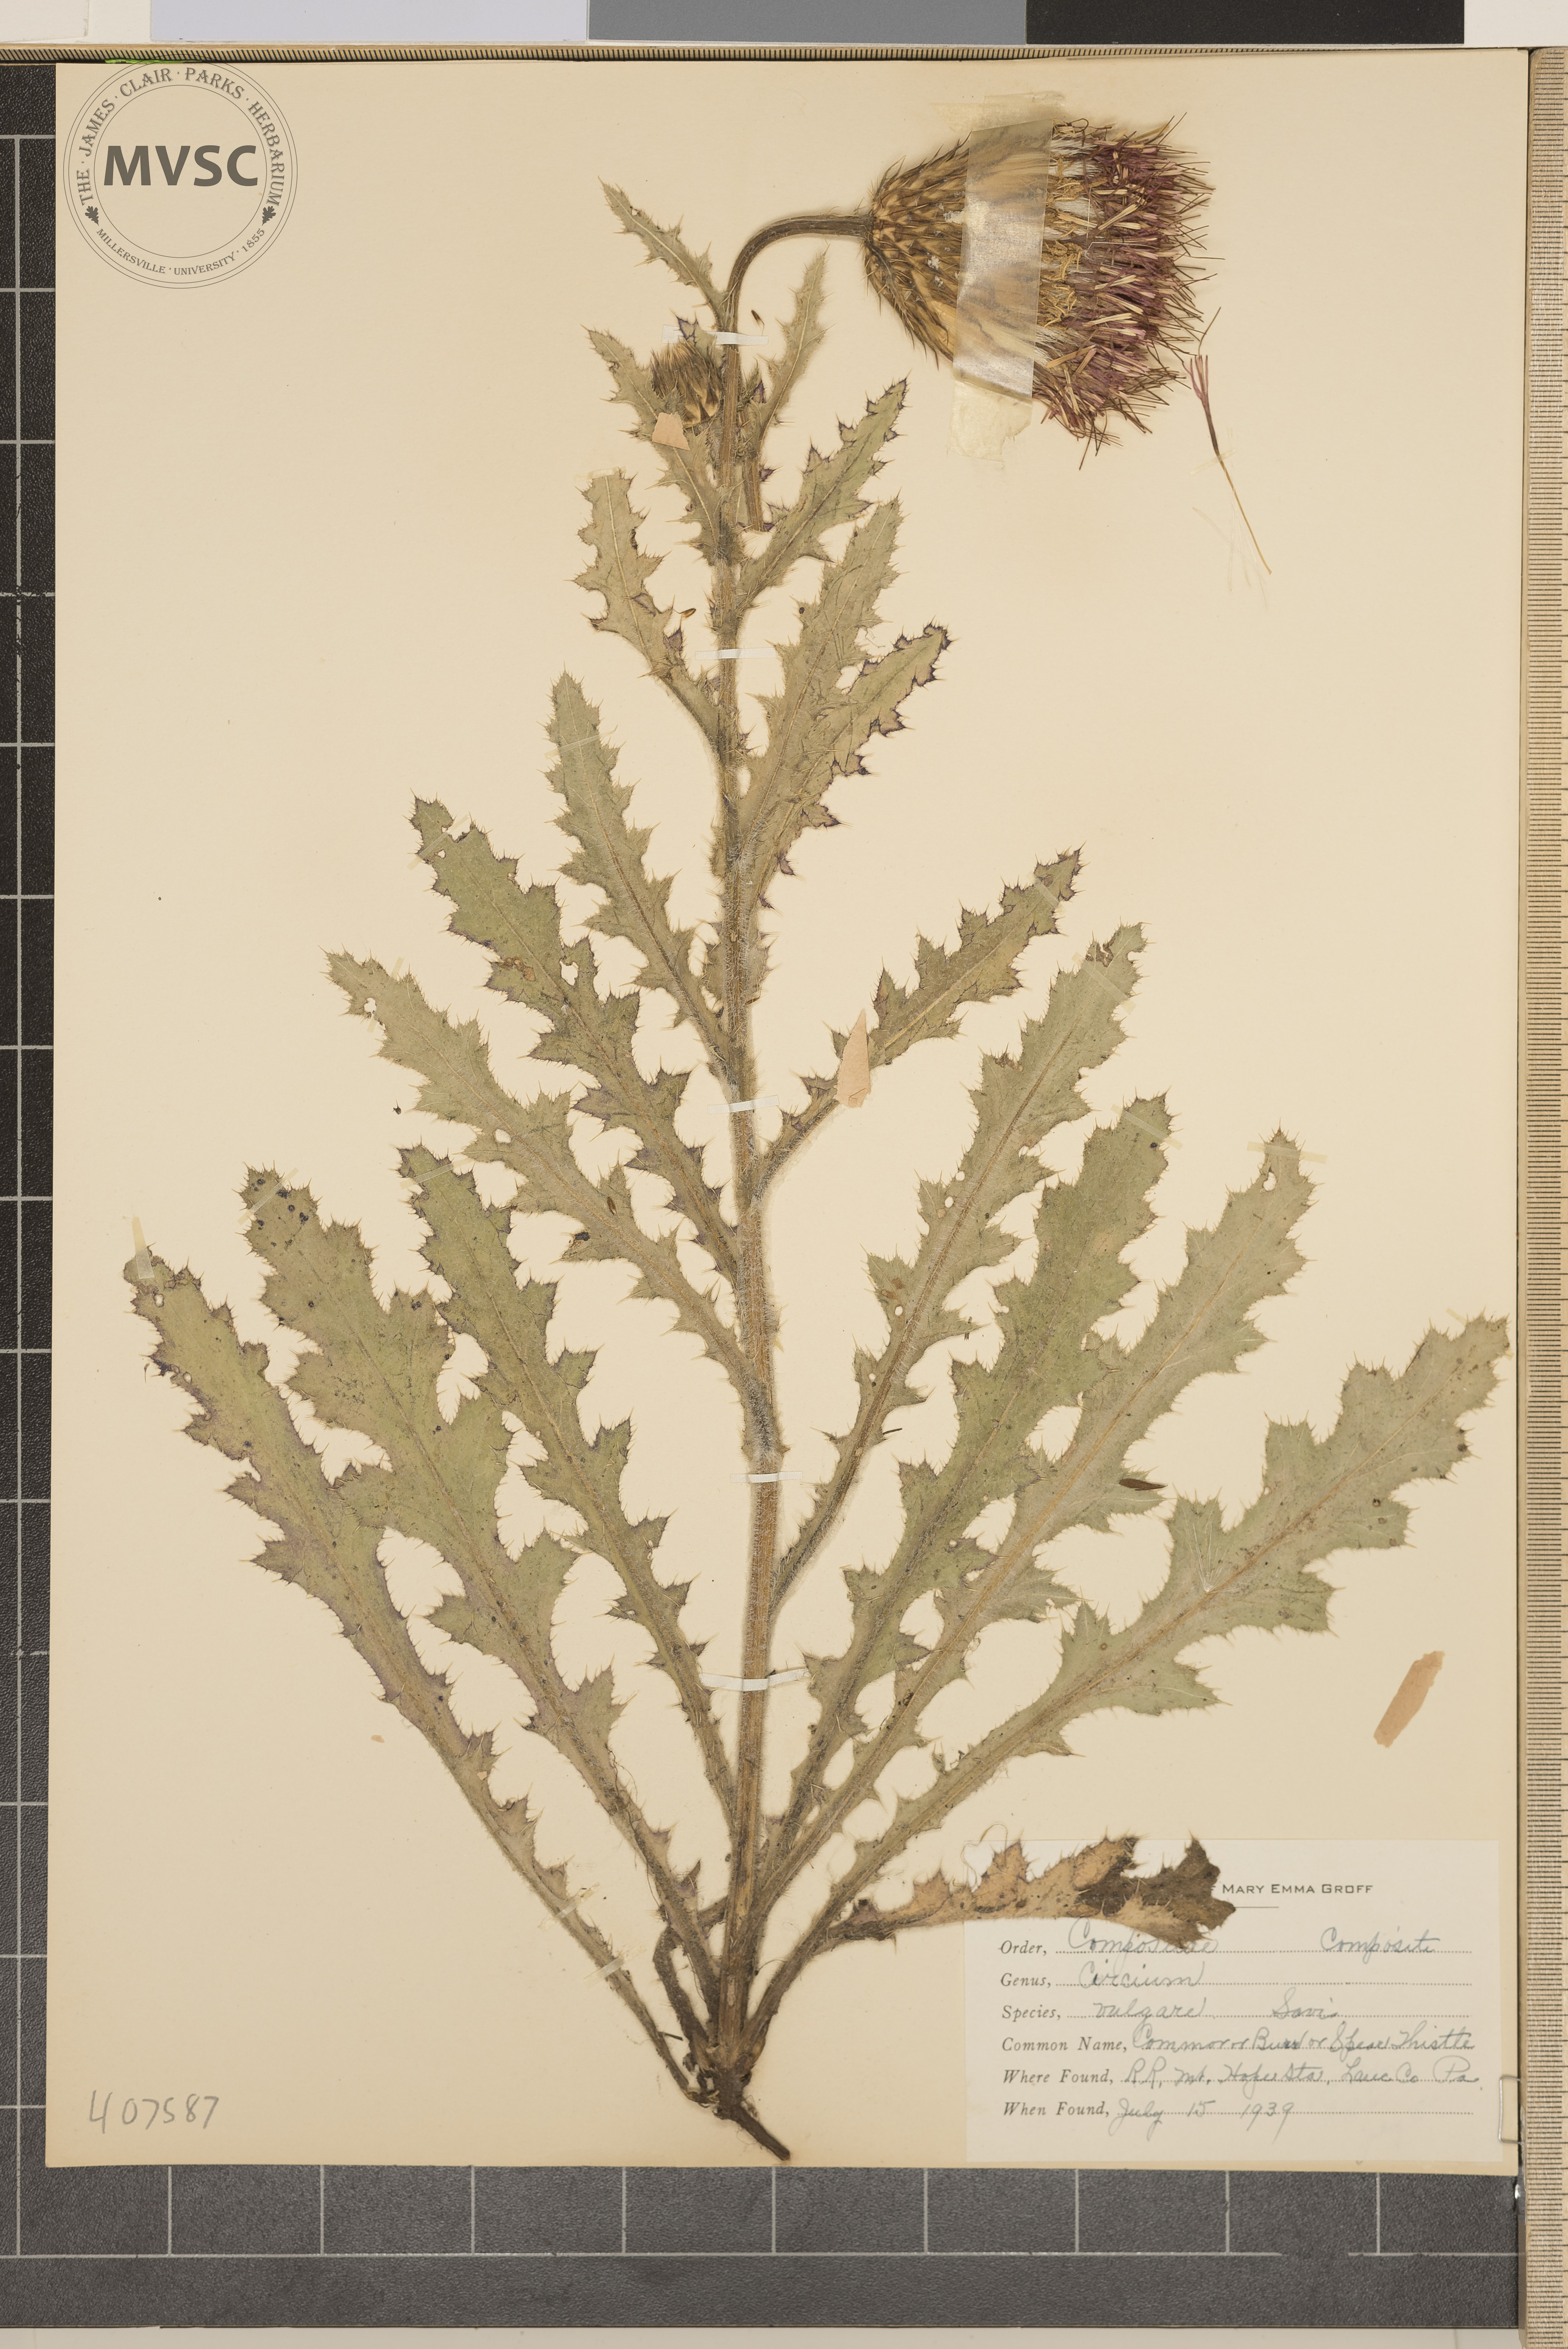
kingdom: Plantae
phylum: Tracheophyta
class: Magnoliopsida
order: Asterales
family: Asteraceae
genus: Cirsium
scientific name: Cirsium vulgare
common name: bull thistle
